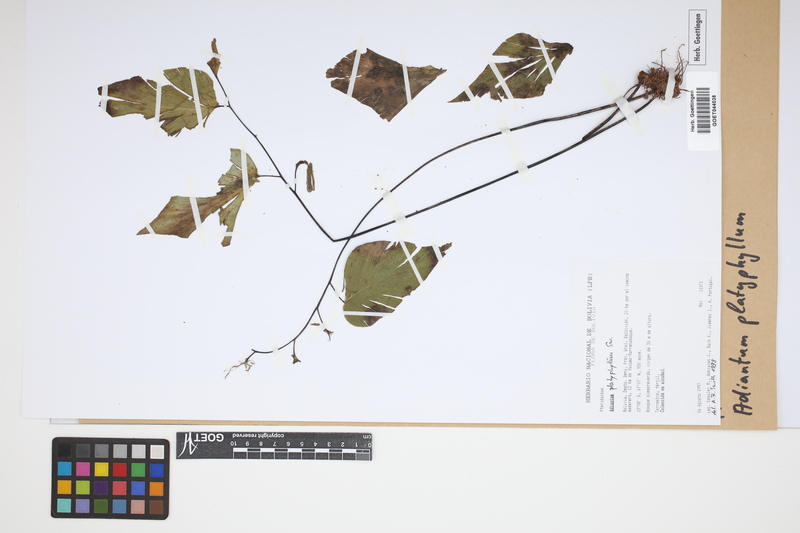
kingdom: Plantae
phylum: Tracheophyta
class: Polypodiopsida
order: Polypodiales
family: Pteridaceae
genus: Adiantum
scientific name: Adiantum platyphyllum
